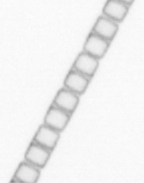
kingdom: Chromista
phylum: Ochrophyta
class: Bacillariophyceae
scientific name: Bacillariophyceae
